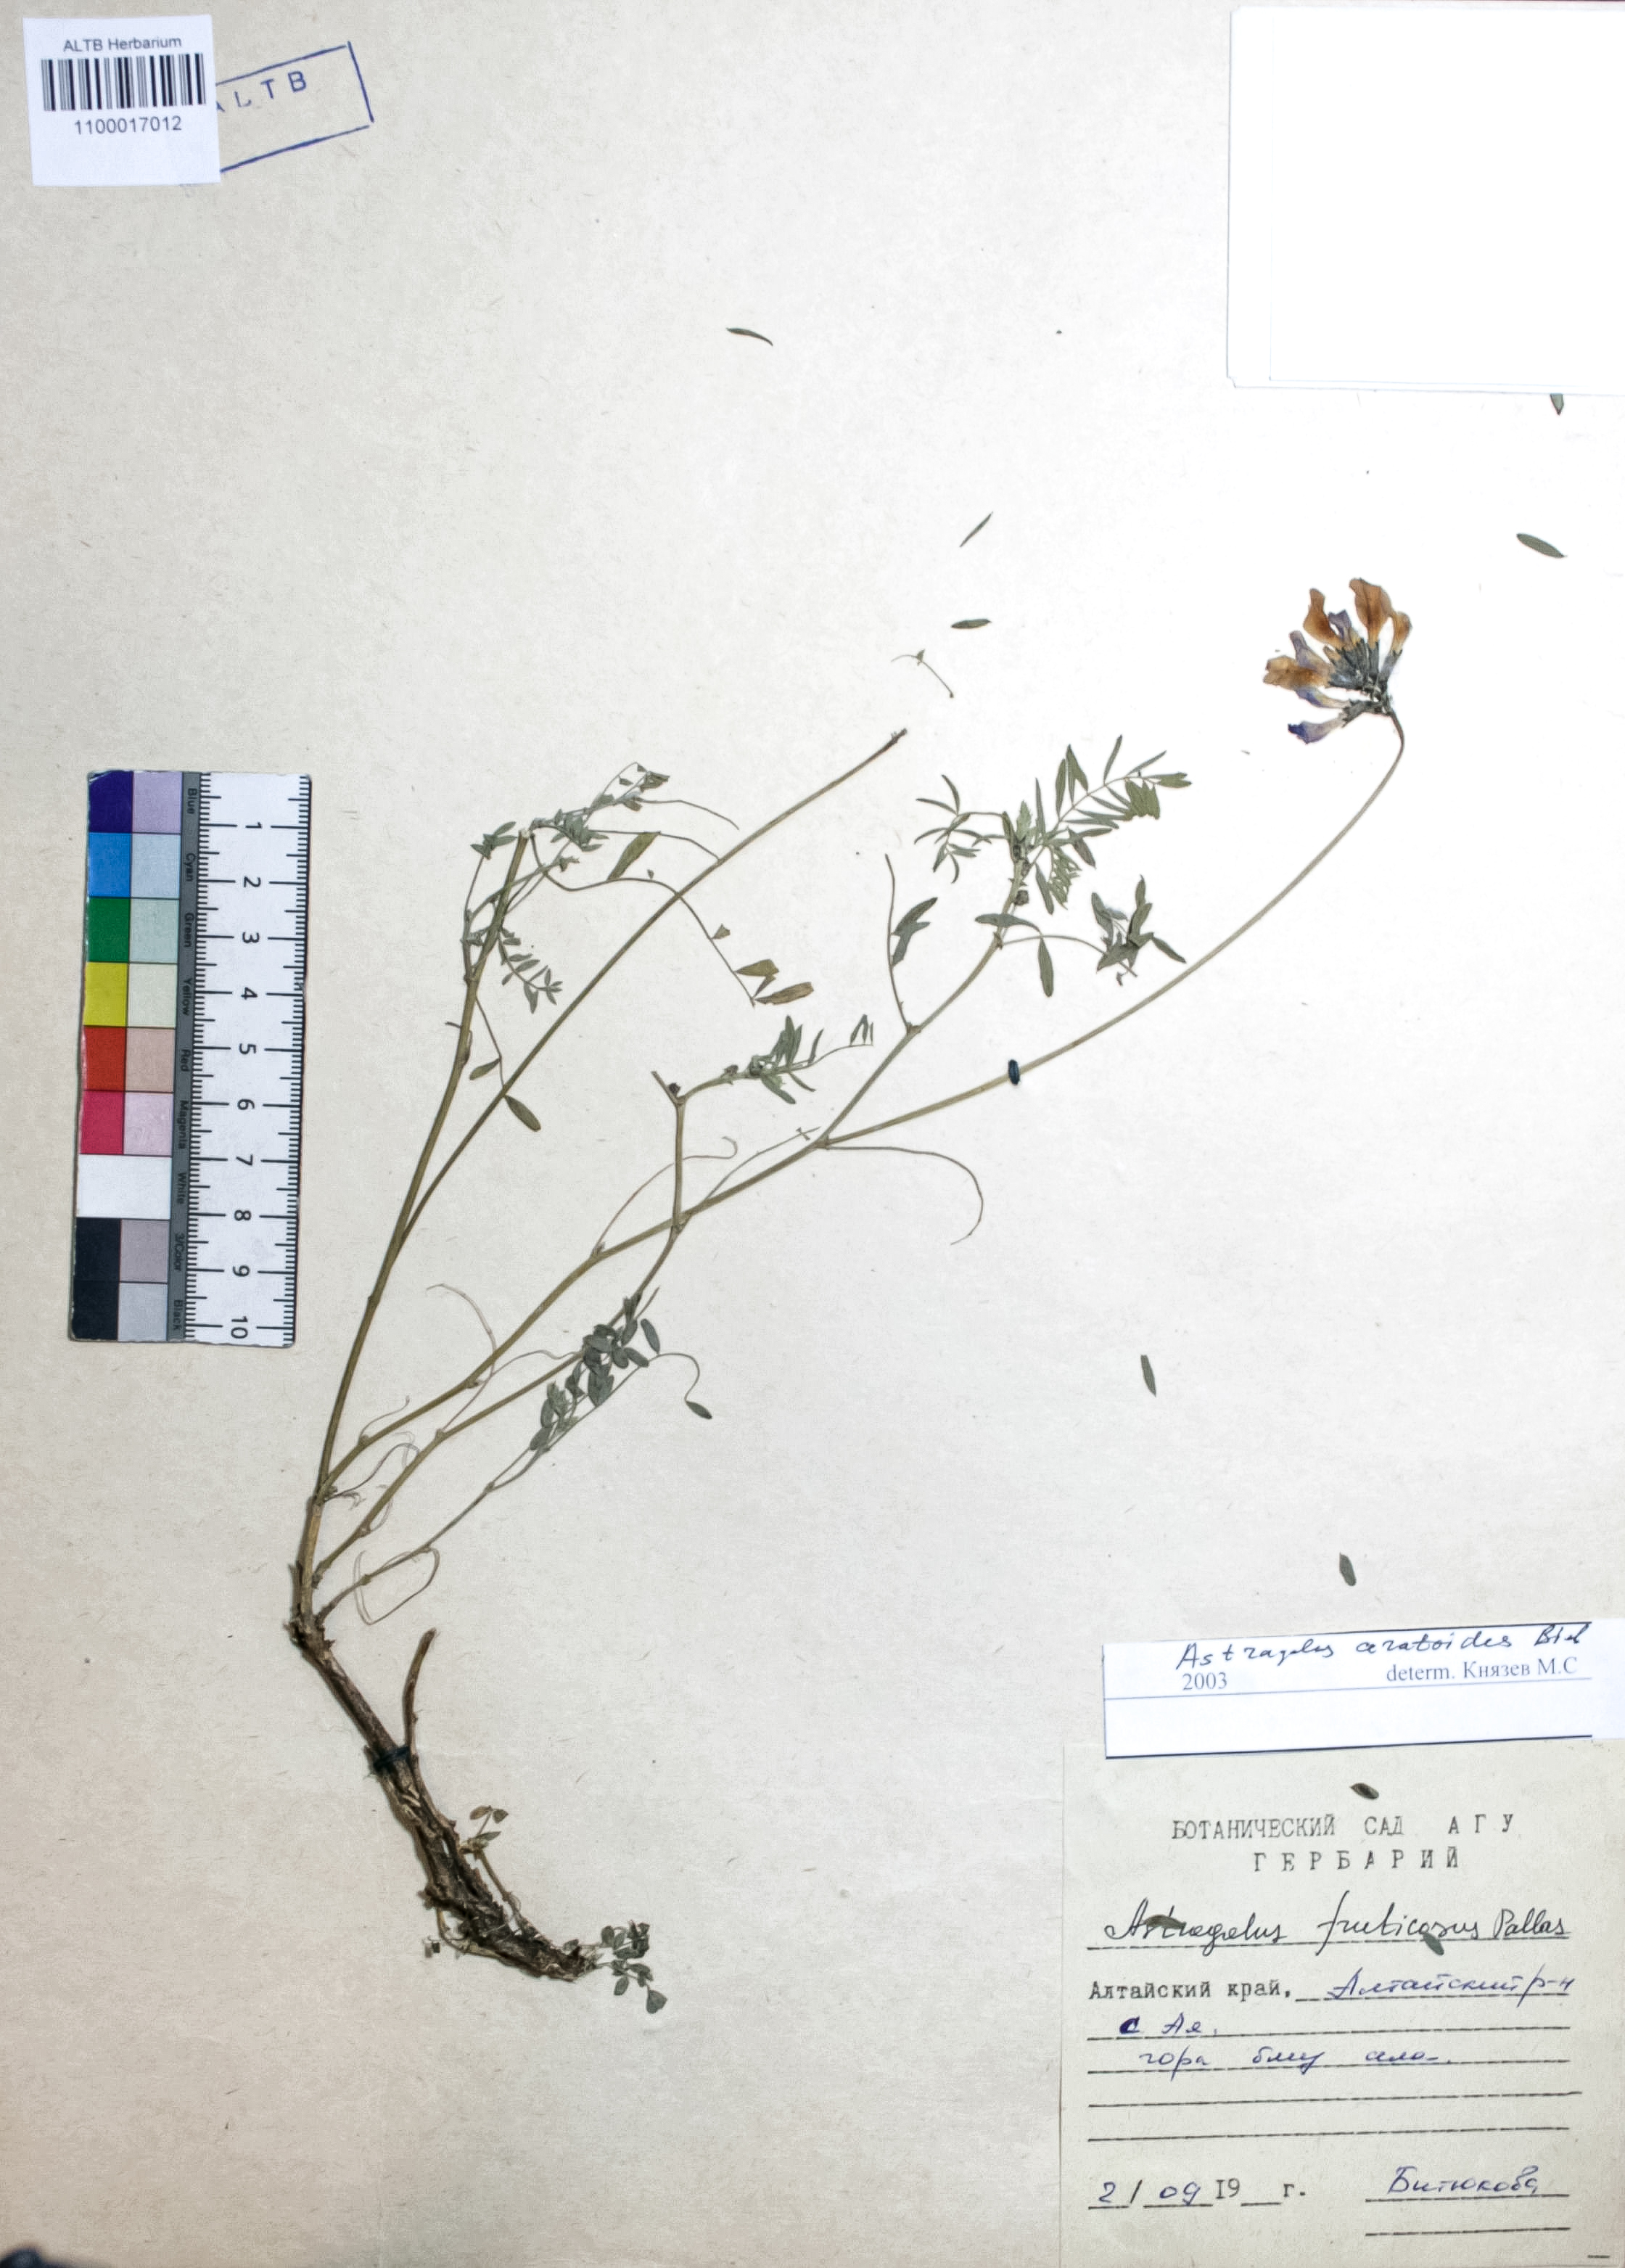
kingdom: Plantae
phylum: Tracheophyta
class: Magnoliopsida
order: Fabales
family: Fabaceae
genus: Astragalus
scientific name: Astragalus ceratoides
